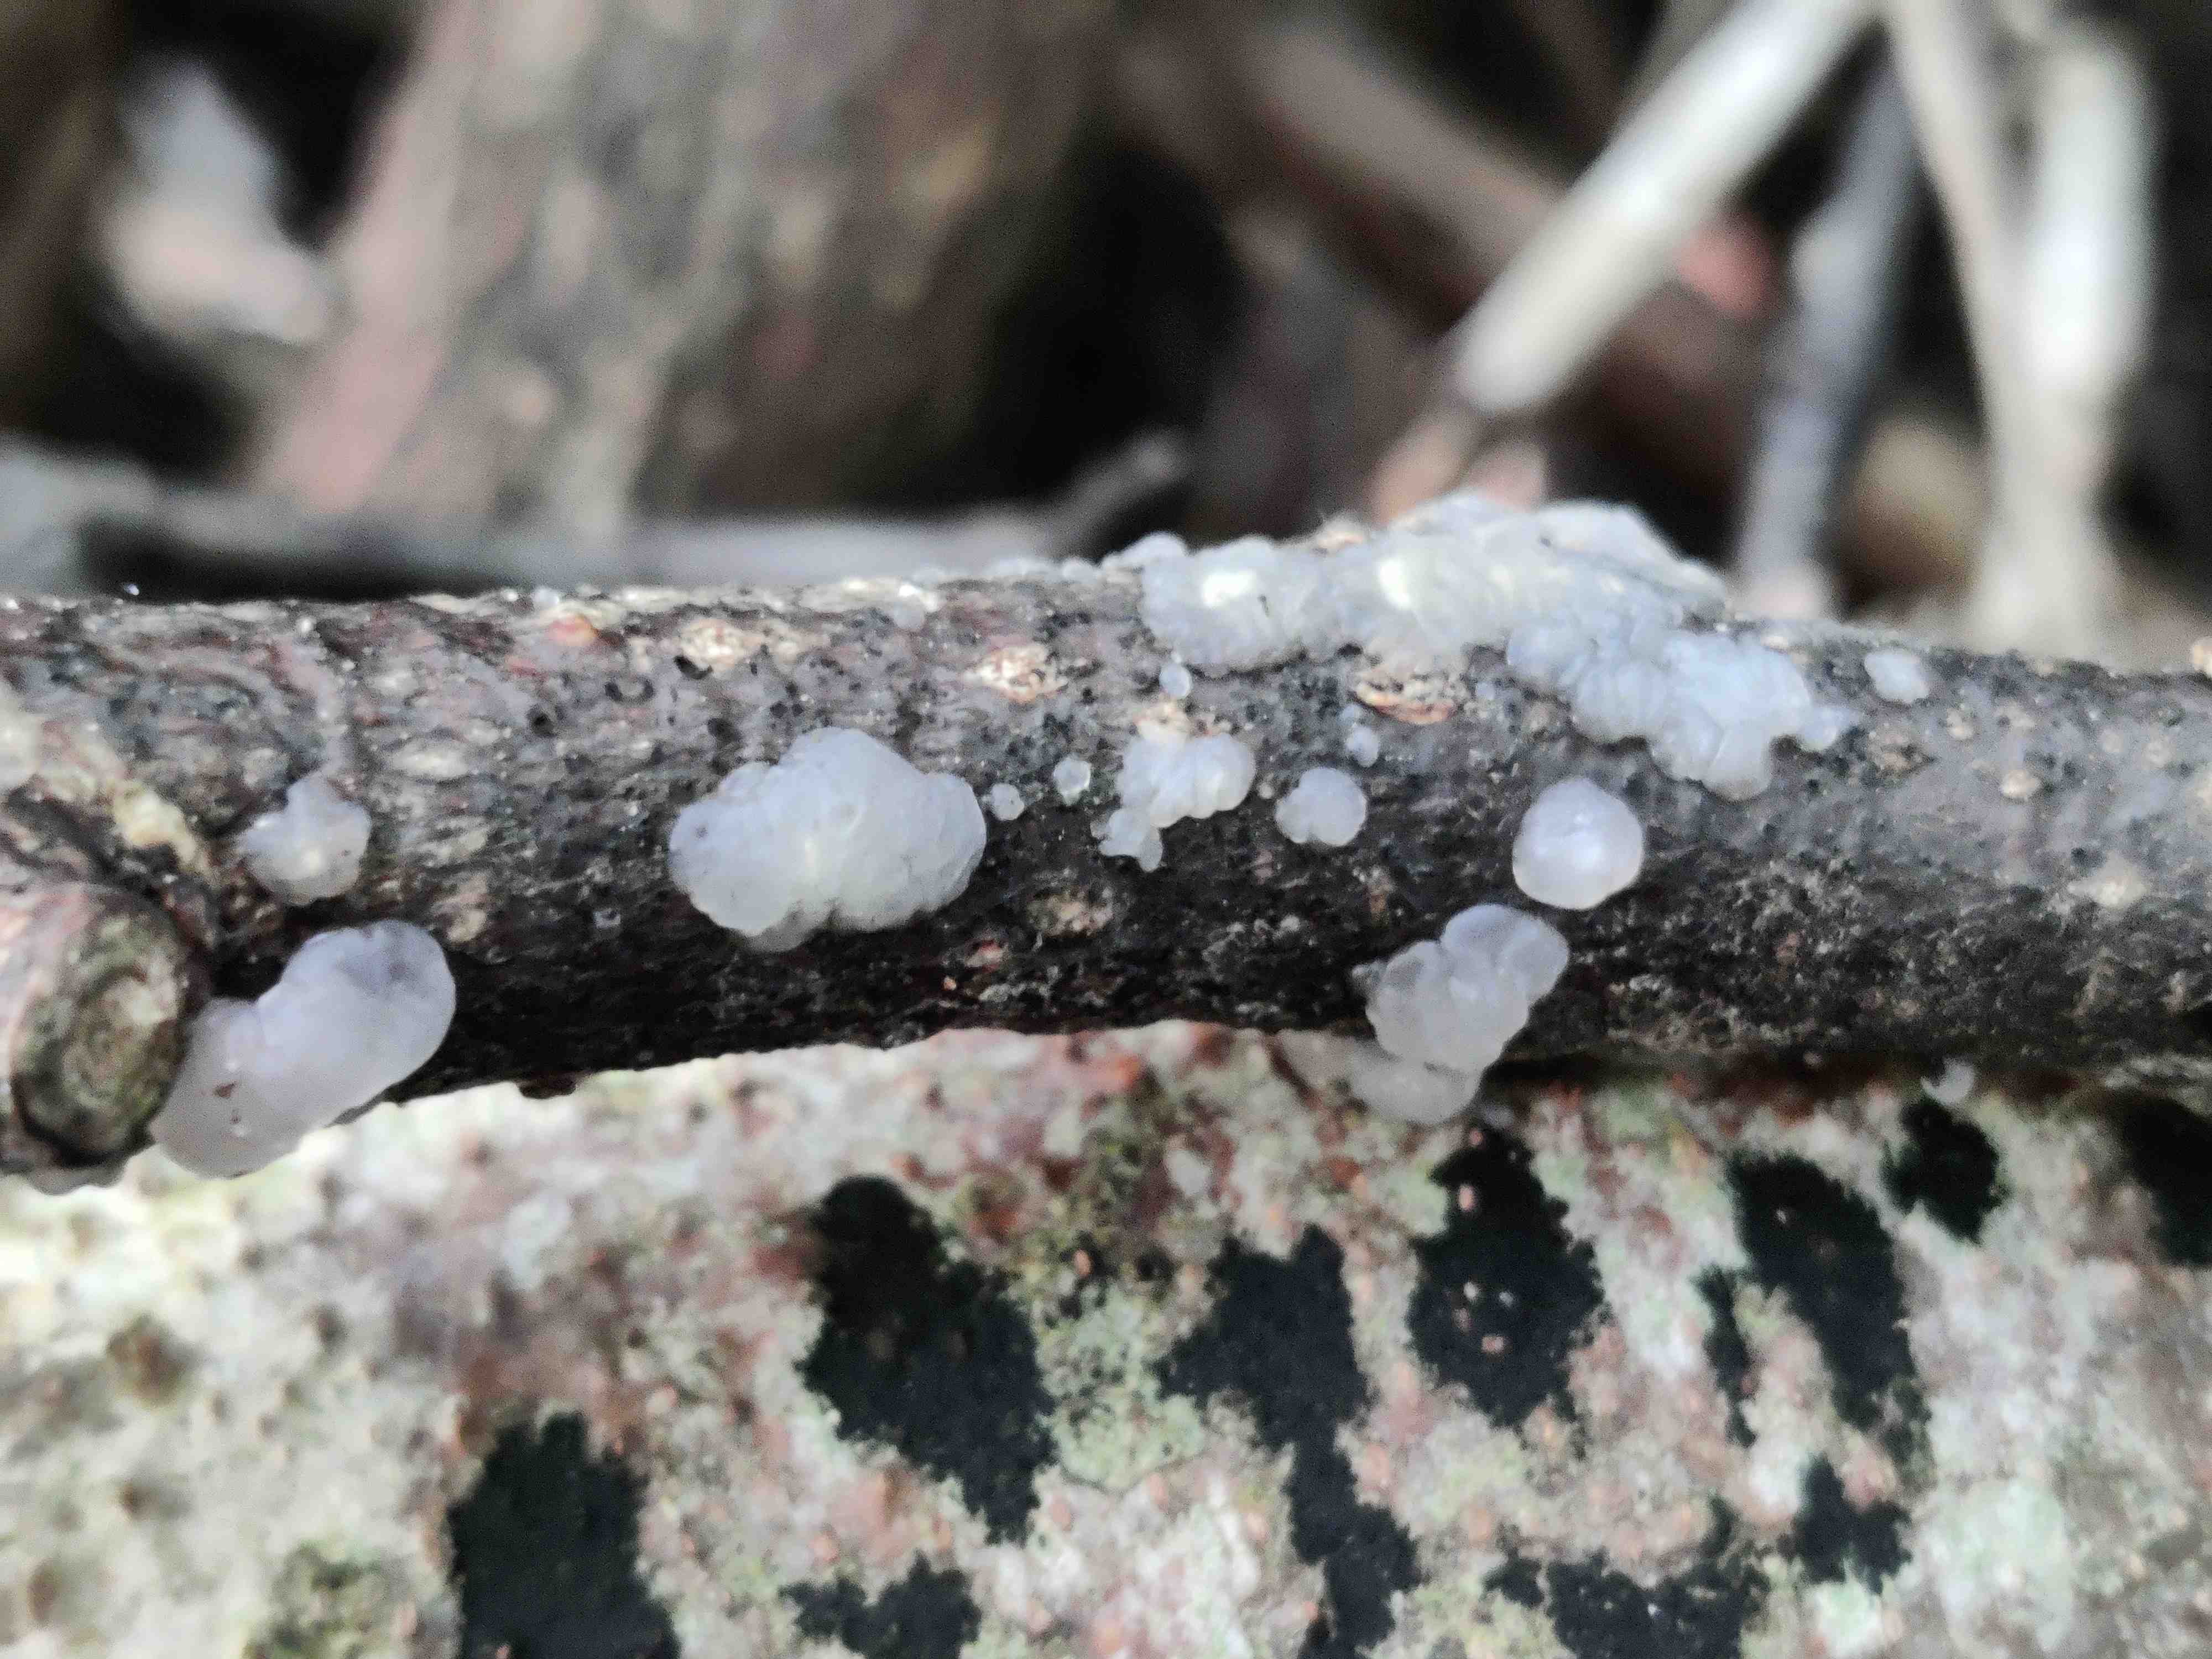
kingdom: Fungi
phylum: Basidiomycota
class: Agaricomycetes
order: Auriculariales
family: Hyaloriaceae
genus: Myxarium
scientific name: Myxarium nucleatum
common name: klar bævretop
